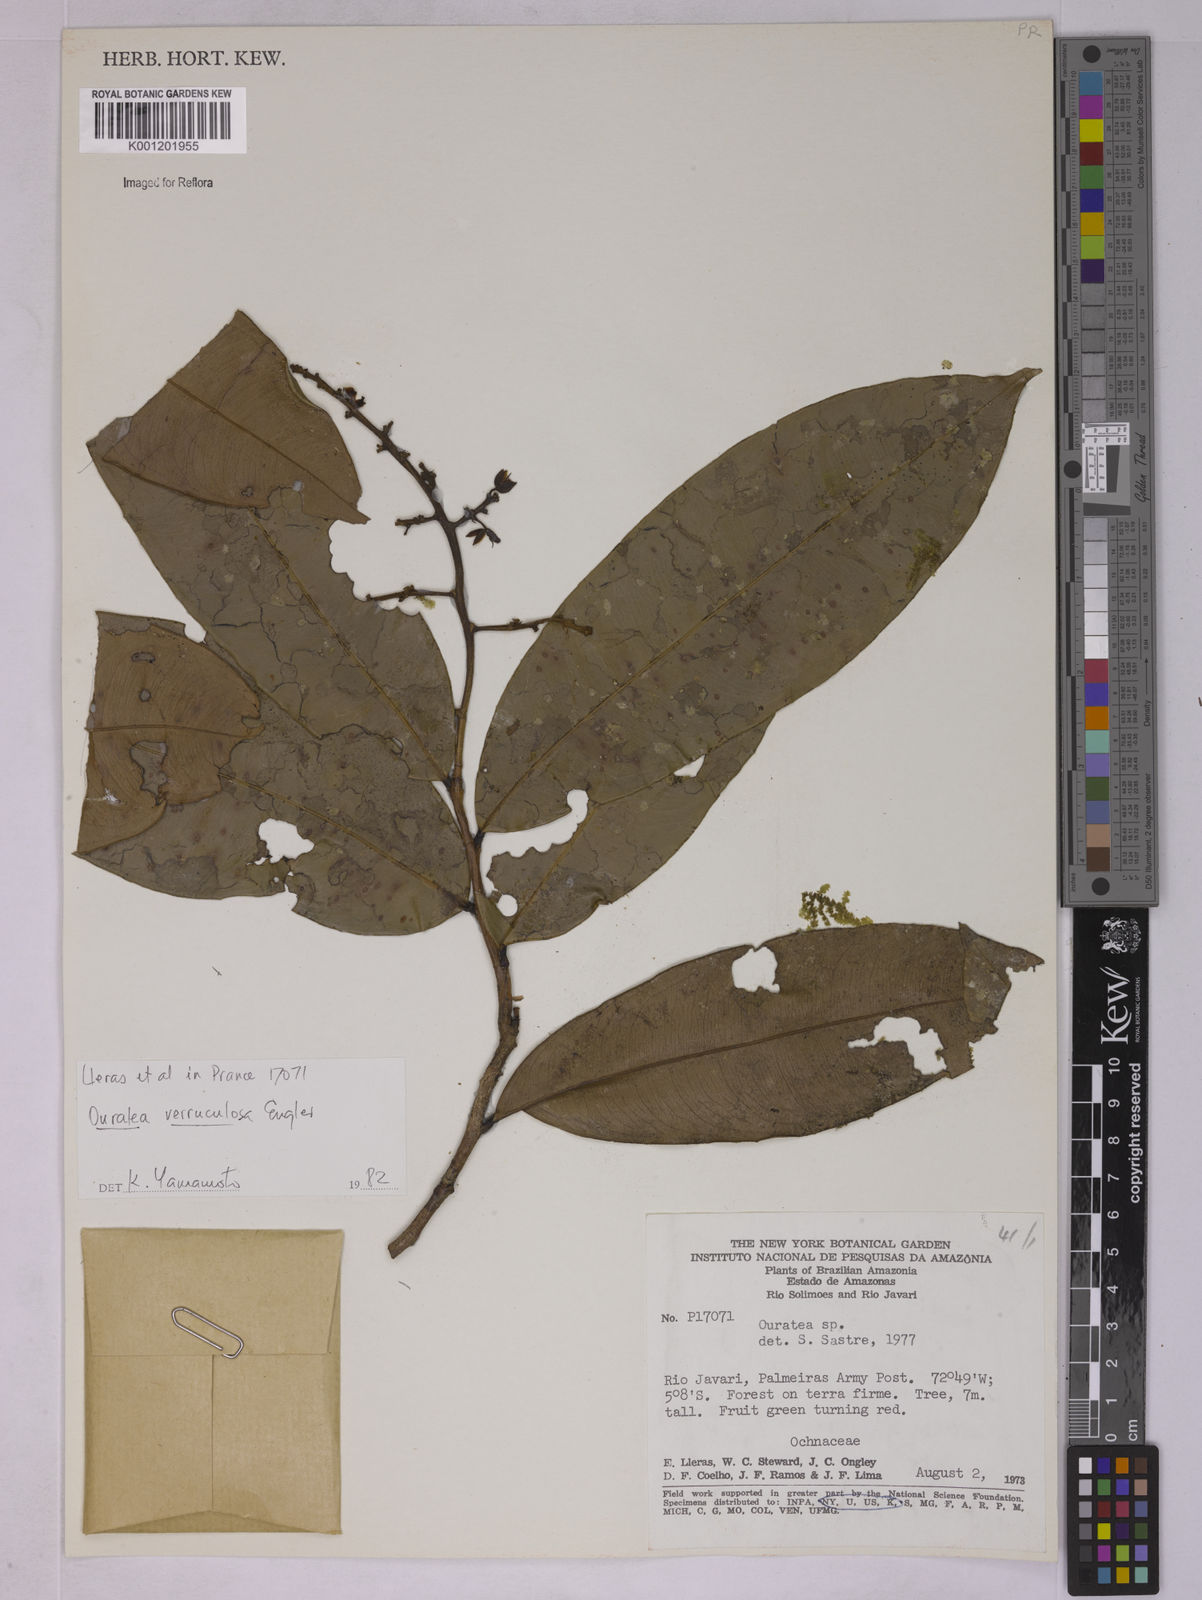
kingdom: Plantae
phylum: Tracheophyta
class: Magnoliopsida
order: Malpighiales
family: Ochnaceae
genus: Ouratea
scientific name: Ouratea verruculosa
